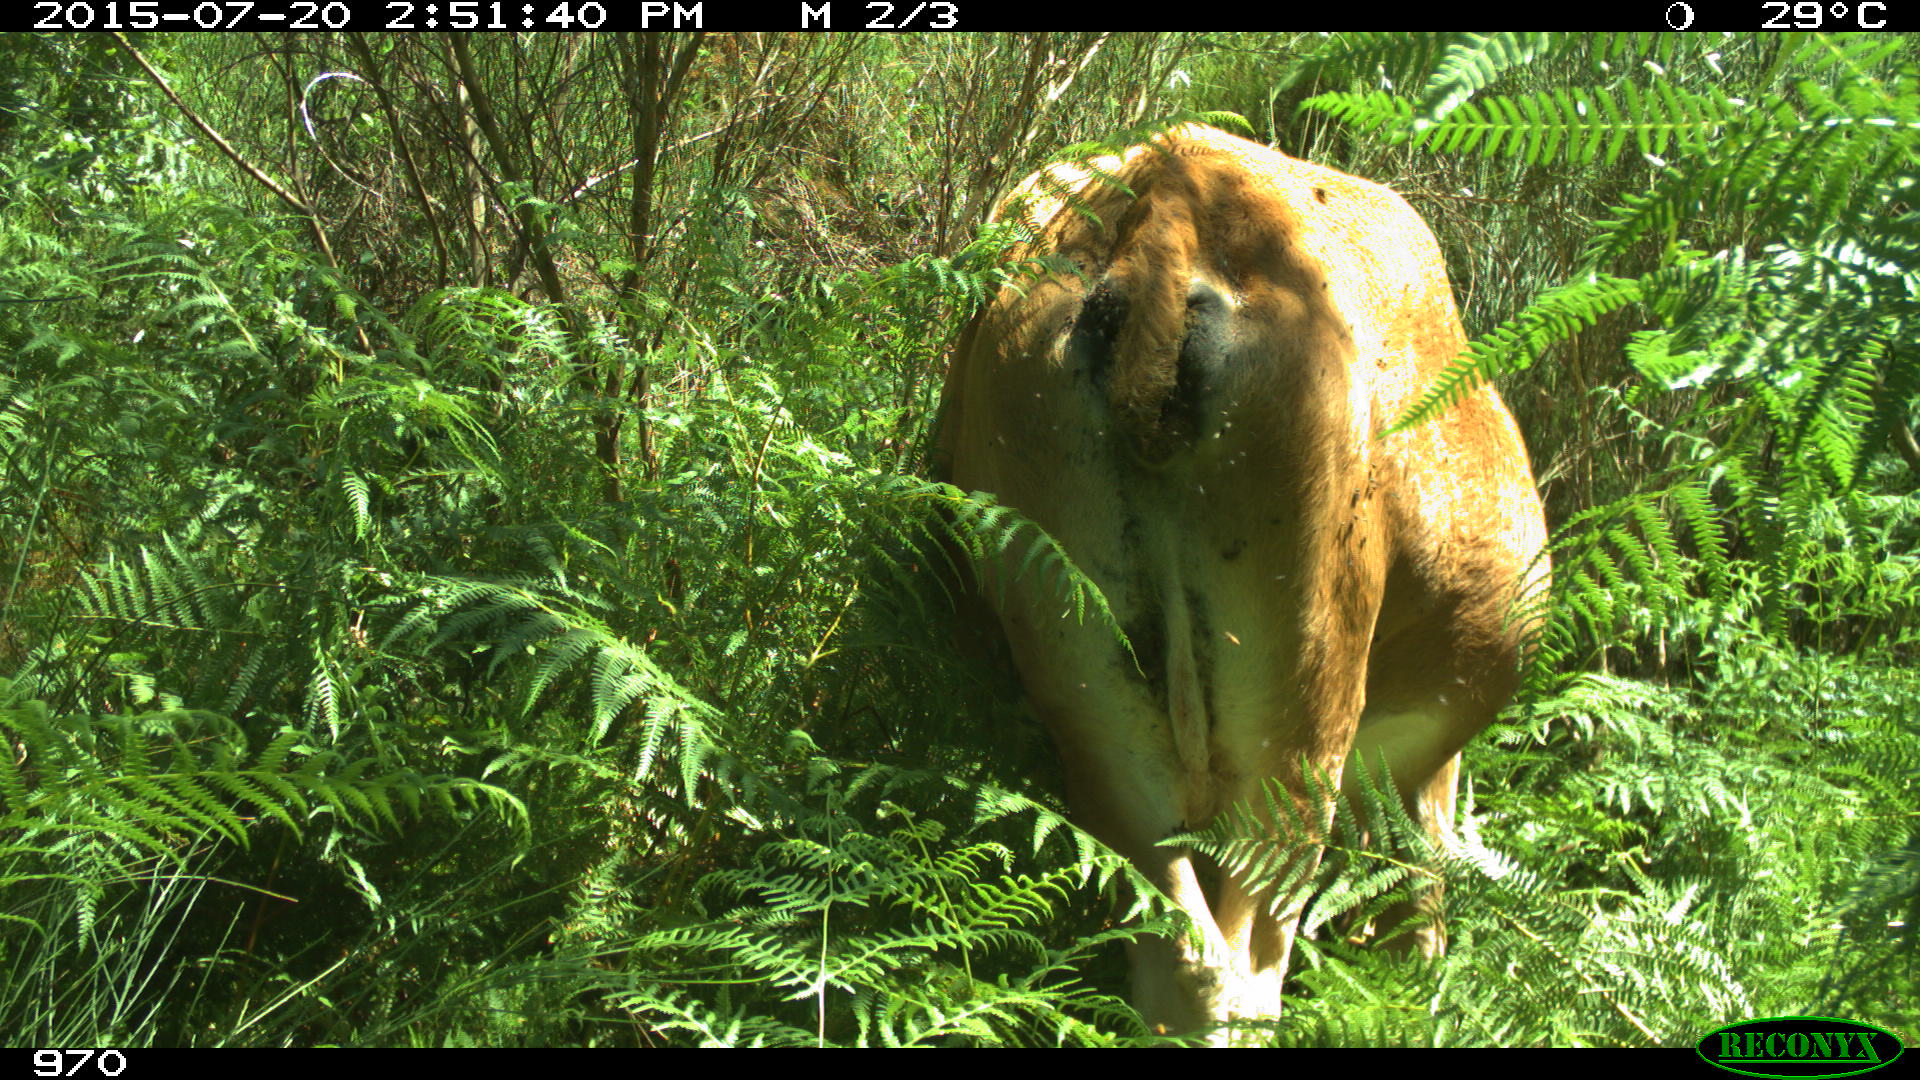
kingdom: Animalia
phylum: Chordata
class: Mammalia
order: Artiodactyla
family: Bovidae
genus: Bos
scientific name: Bos taurus
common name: Domesticated cattle
